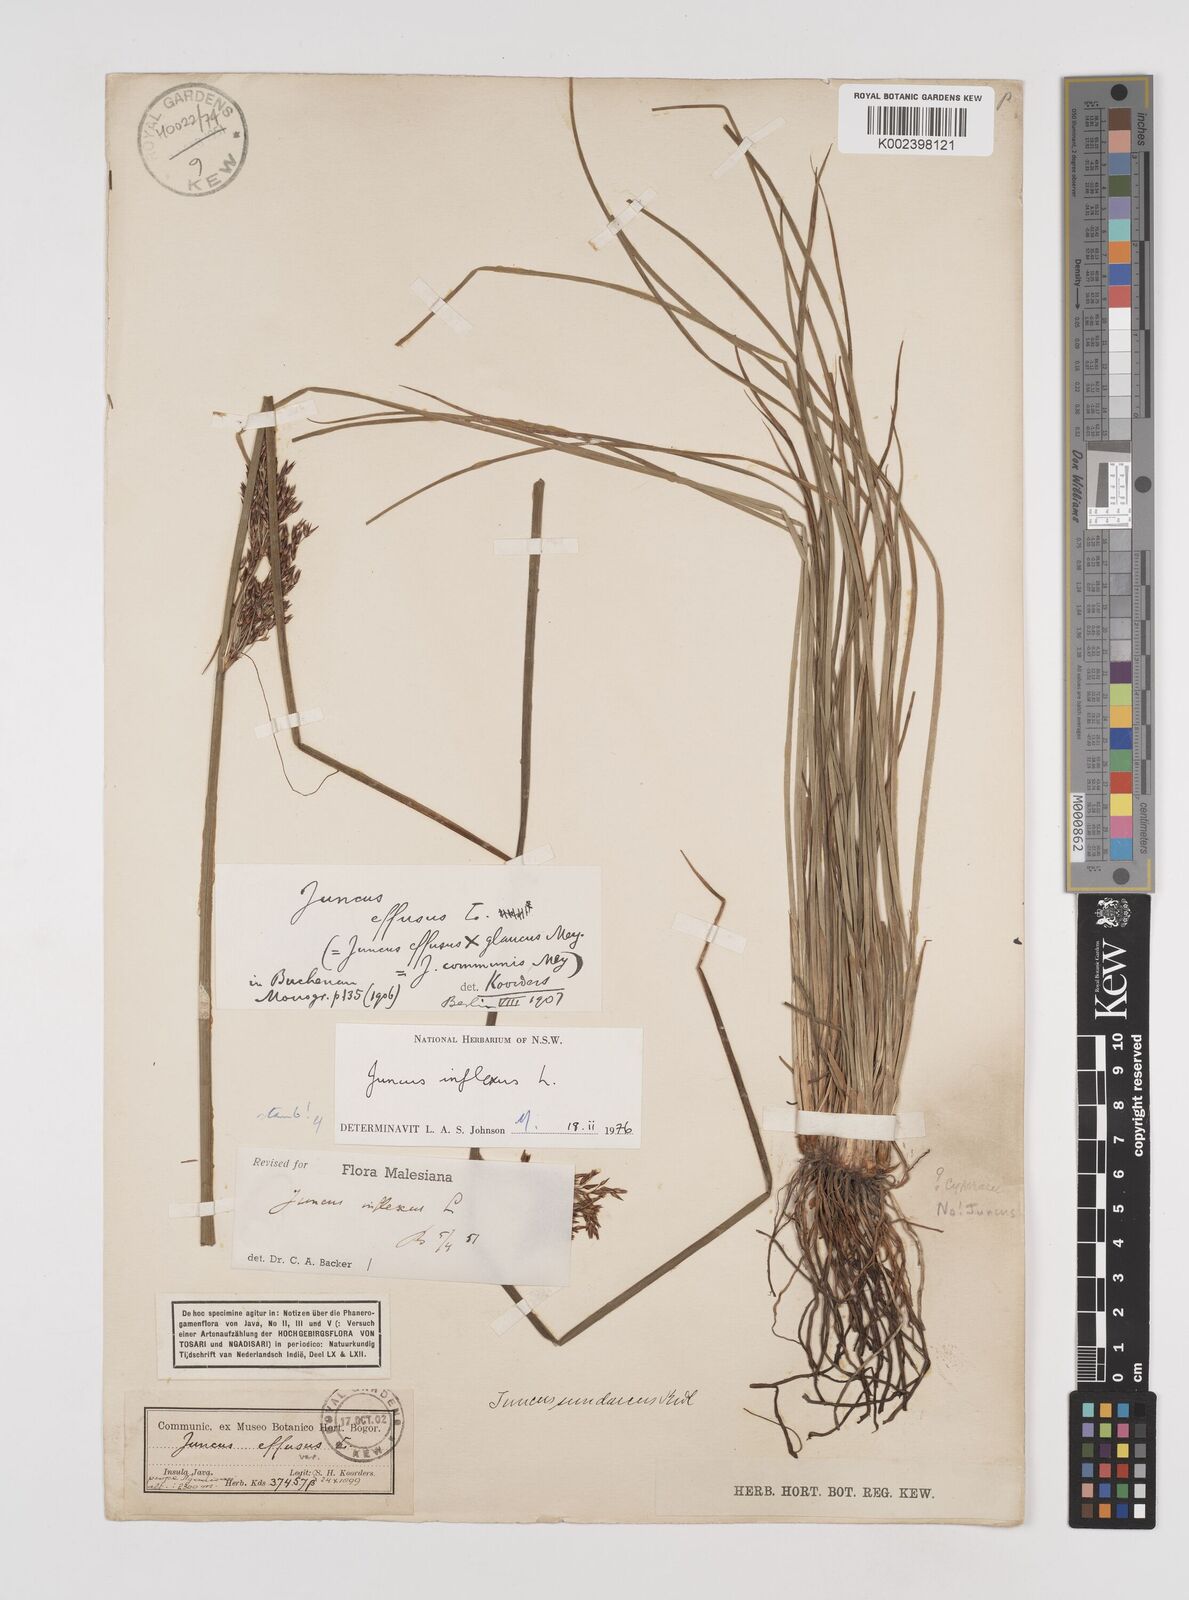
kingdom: Plantae
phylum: Tracheophyta
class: Liliopsida
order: Poales
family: Juncaceae
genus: Juncus
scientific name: Juncus inflexus
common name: Hard rush
